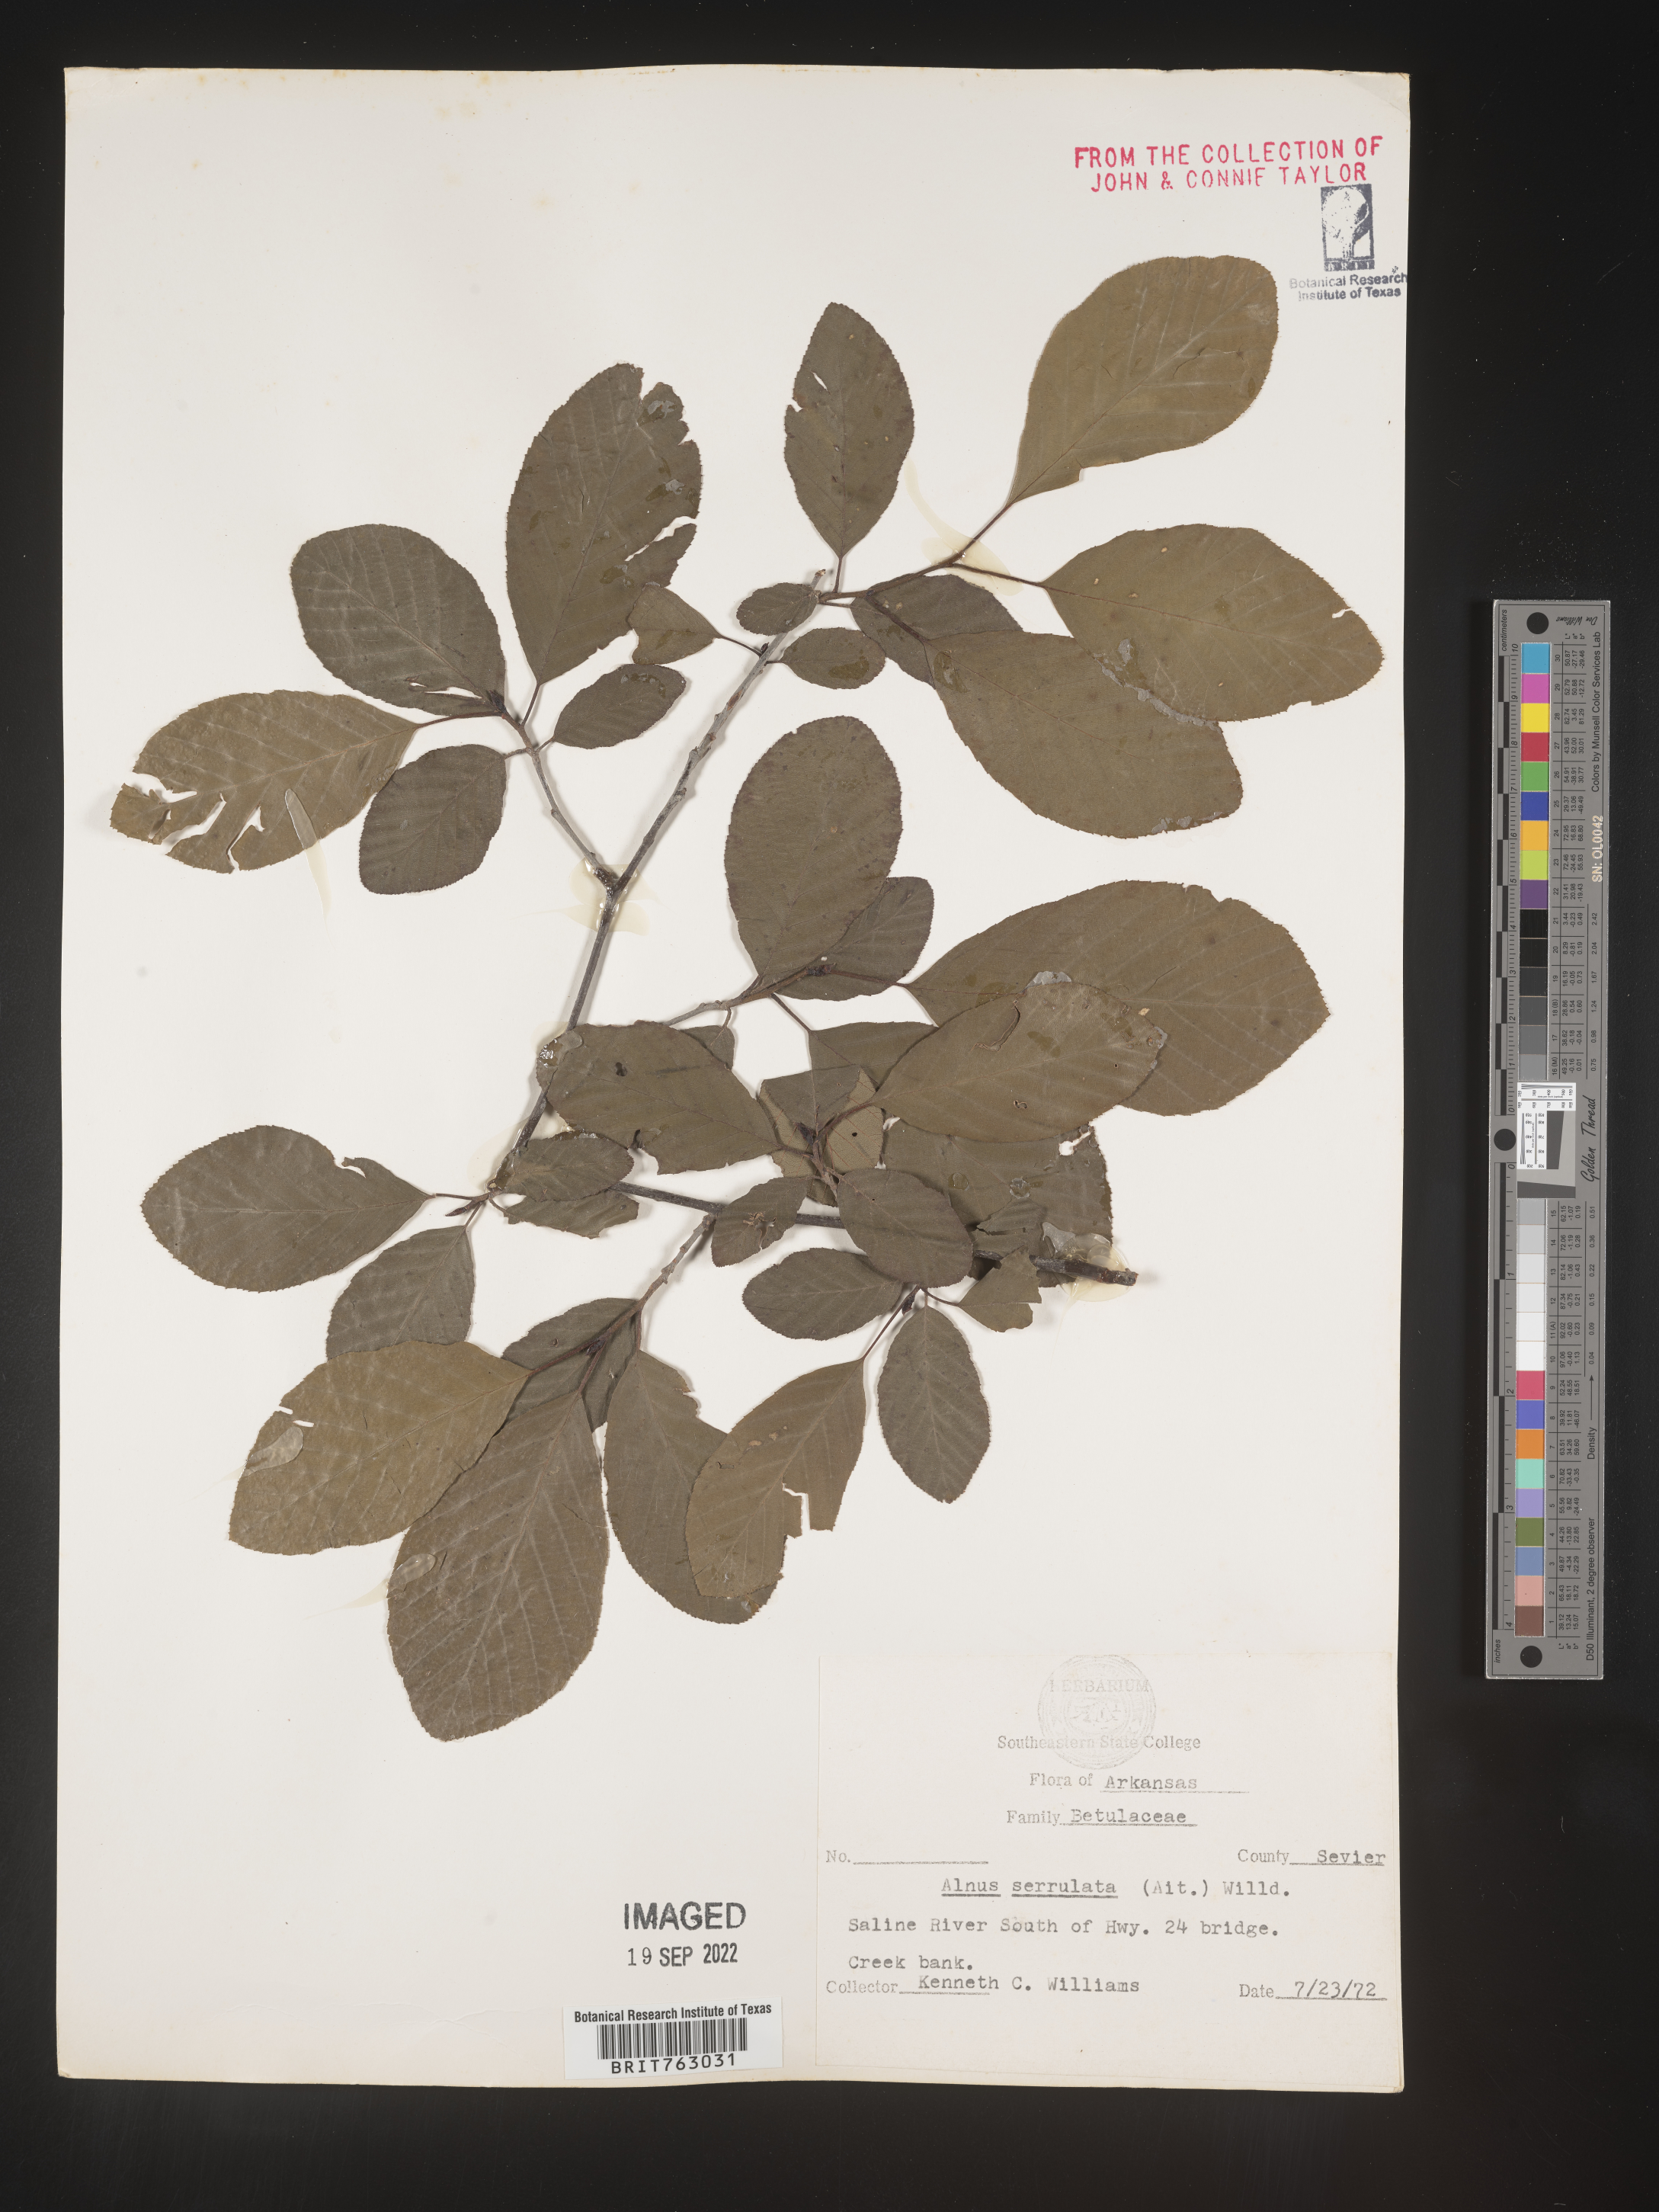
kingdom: Plantae
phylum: Tracheophyta
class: Magnoliopsida
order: Fagales
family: Betulaceae
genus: Alnus
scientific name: Alnus serrulata
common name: Hazel alder
